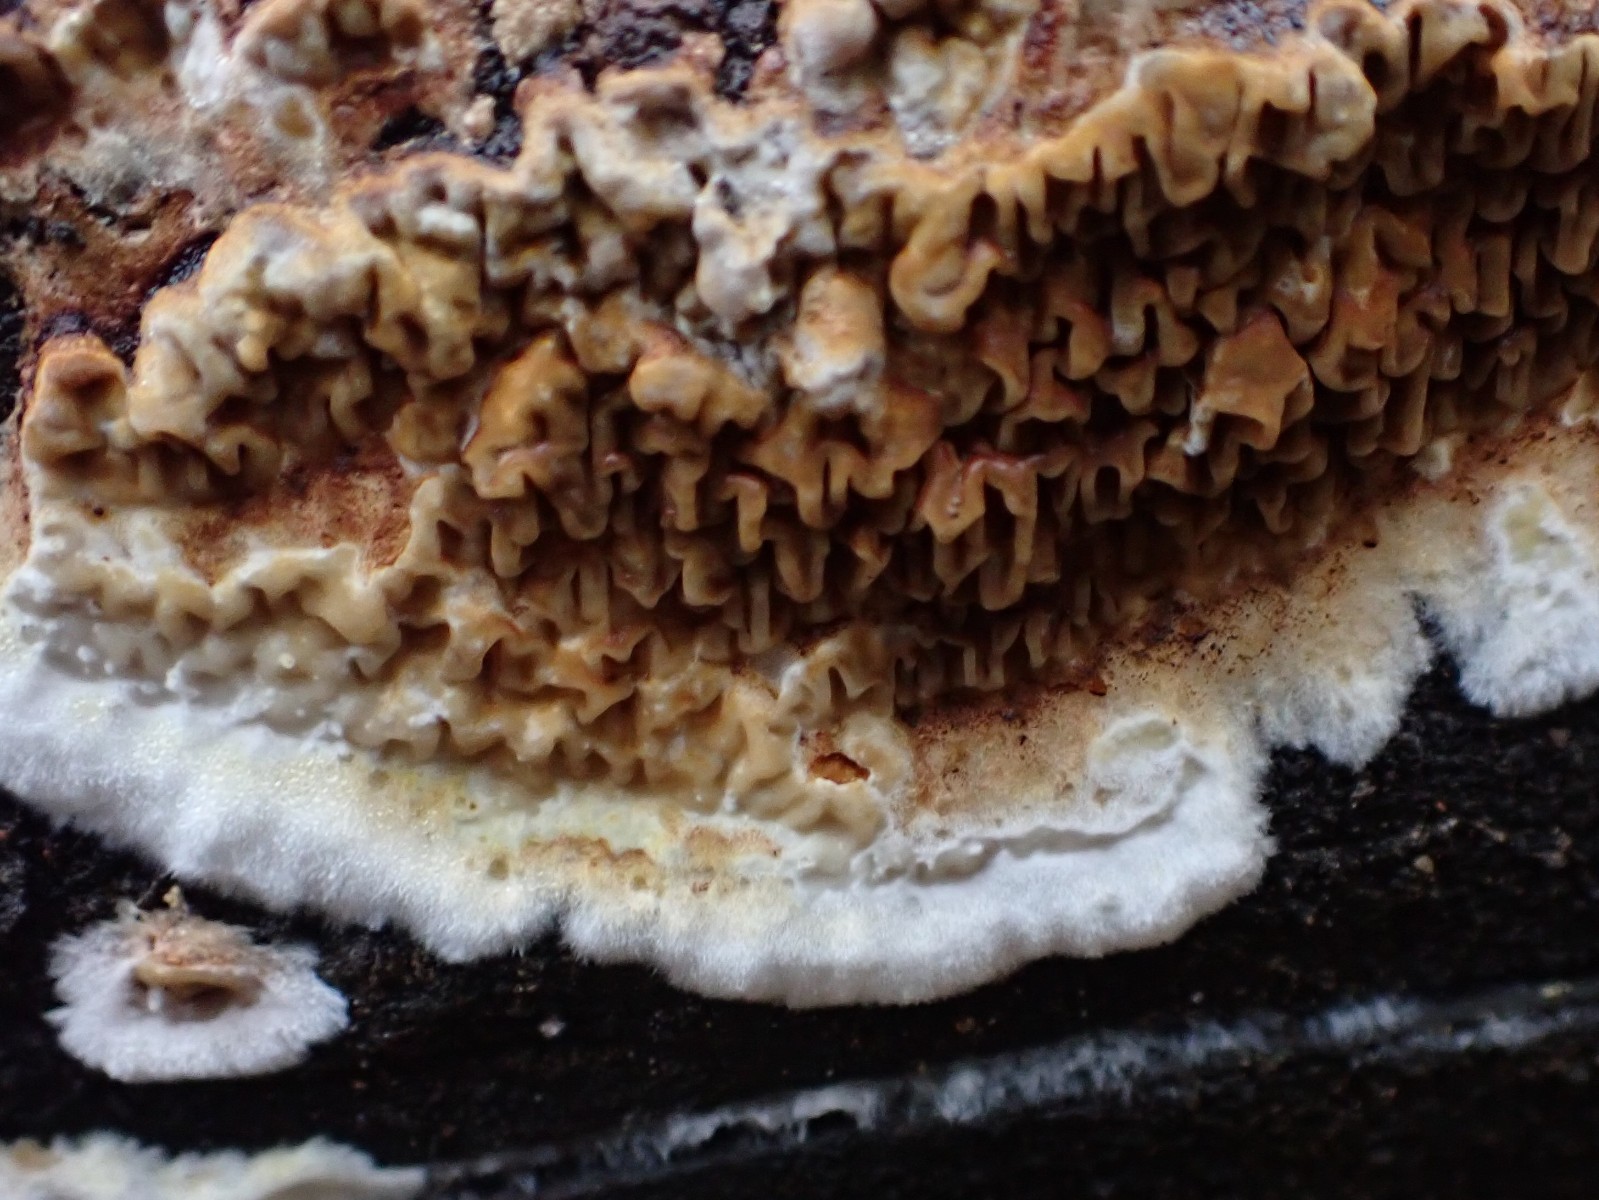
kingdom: Fungi
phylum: Basidiomycota
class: Agaricomycetes
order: Boletales
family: Serpulaceae
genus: Serpula
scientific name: Serpula himantioides
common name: tyndkødet hussvamp
